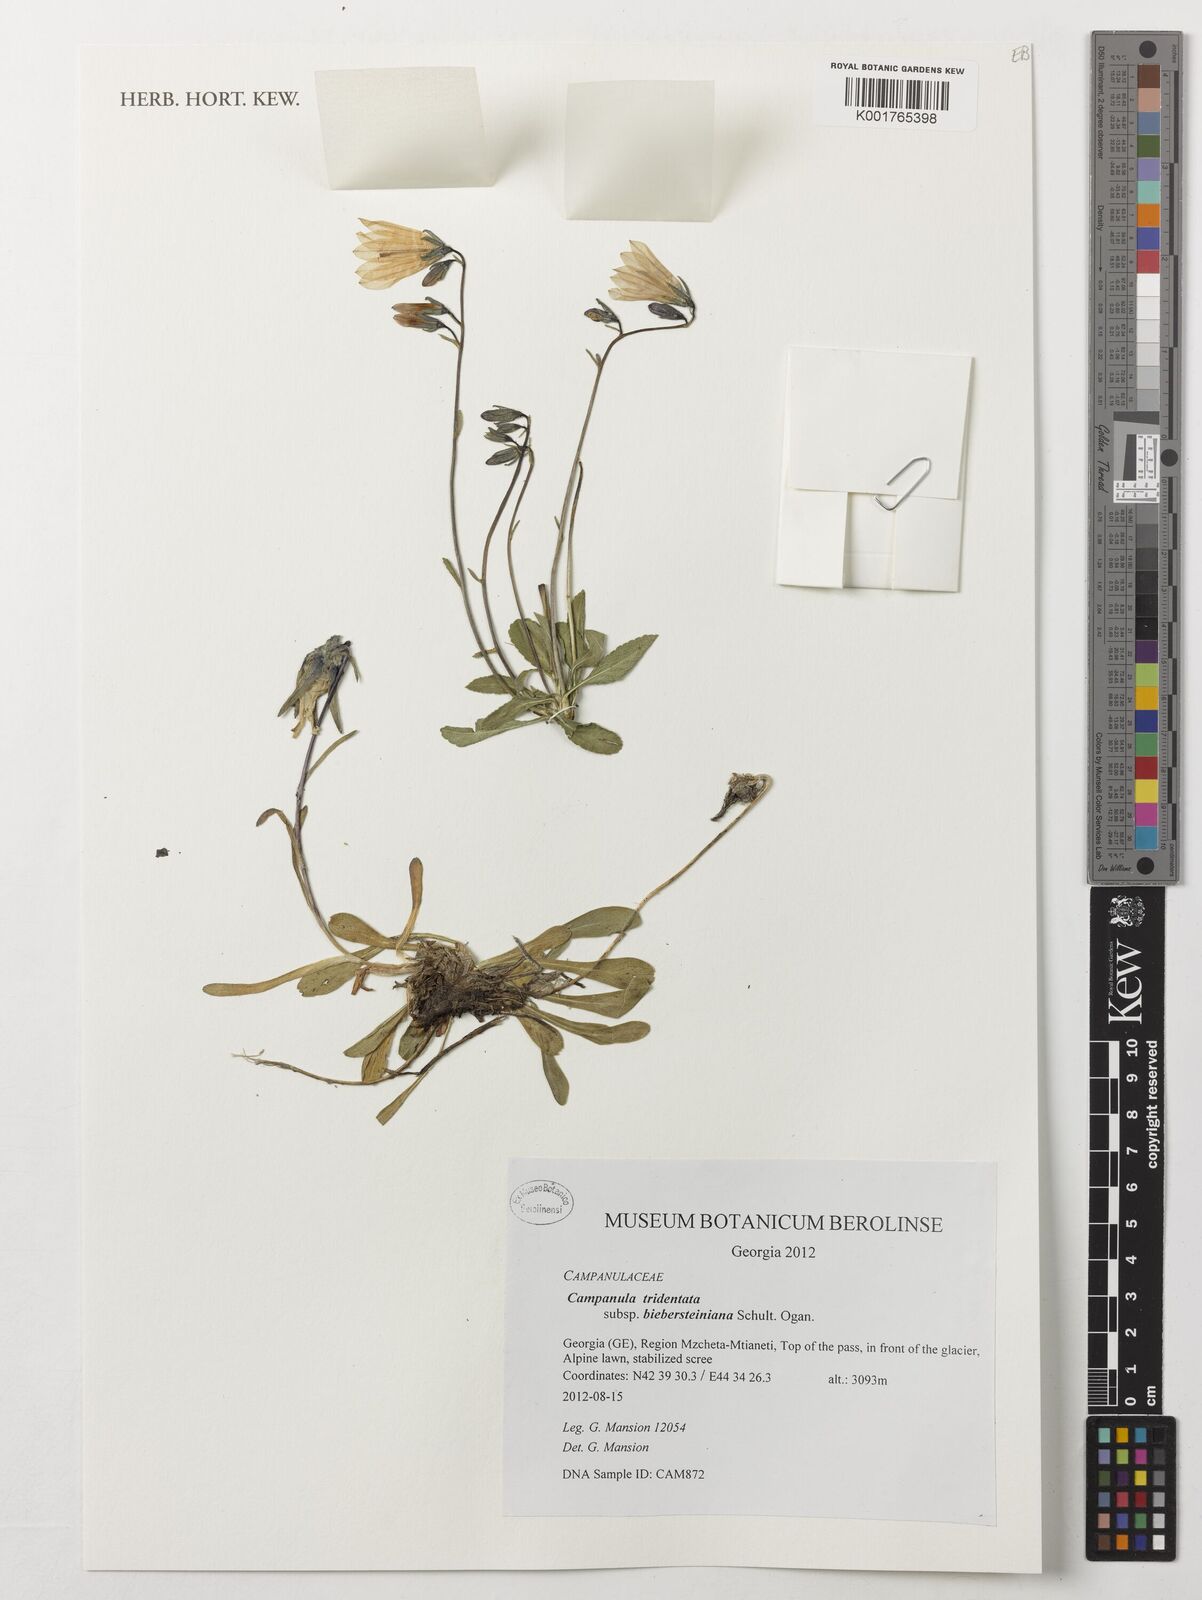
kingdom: Plantae
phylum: Tracheophyta
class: Magnoliopsida
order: Asterales
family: Campanulaceae
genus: Campanula
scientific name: Campanula tridentata
